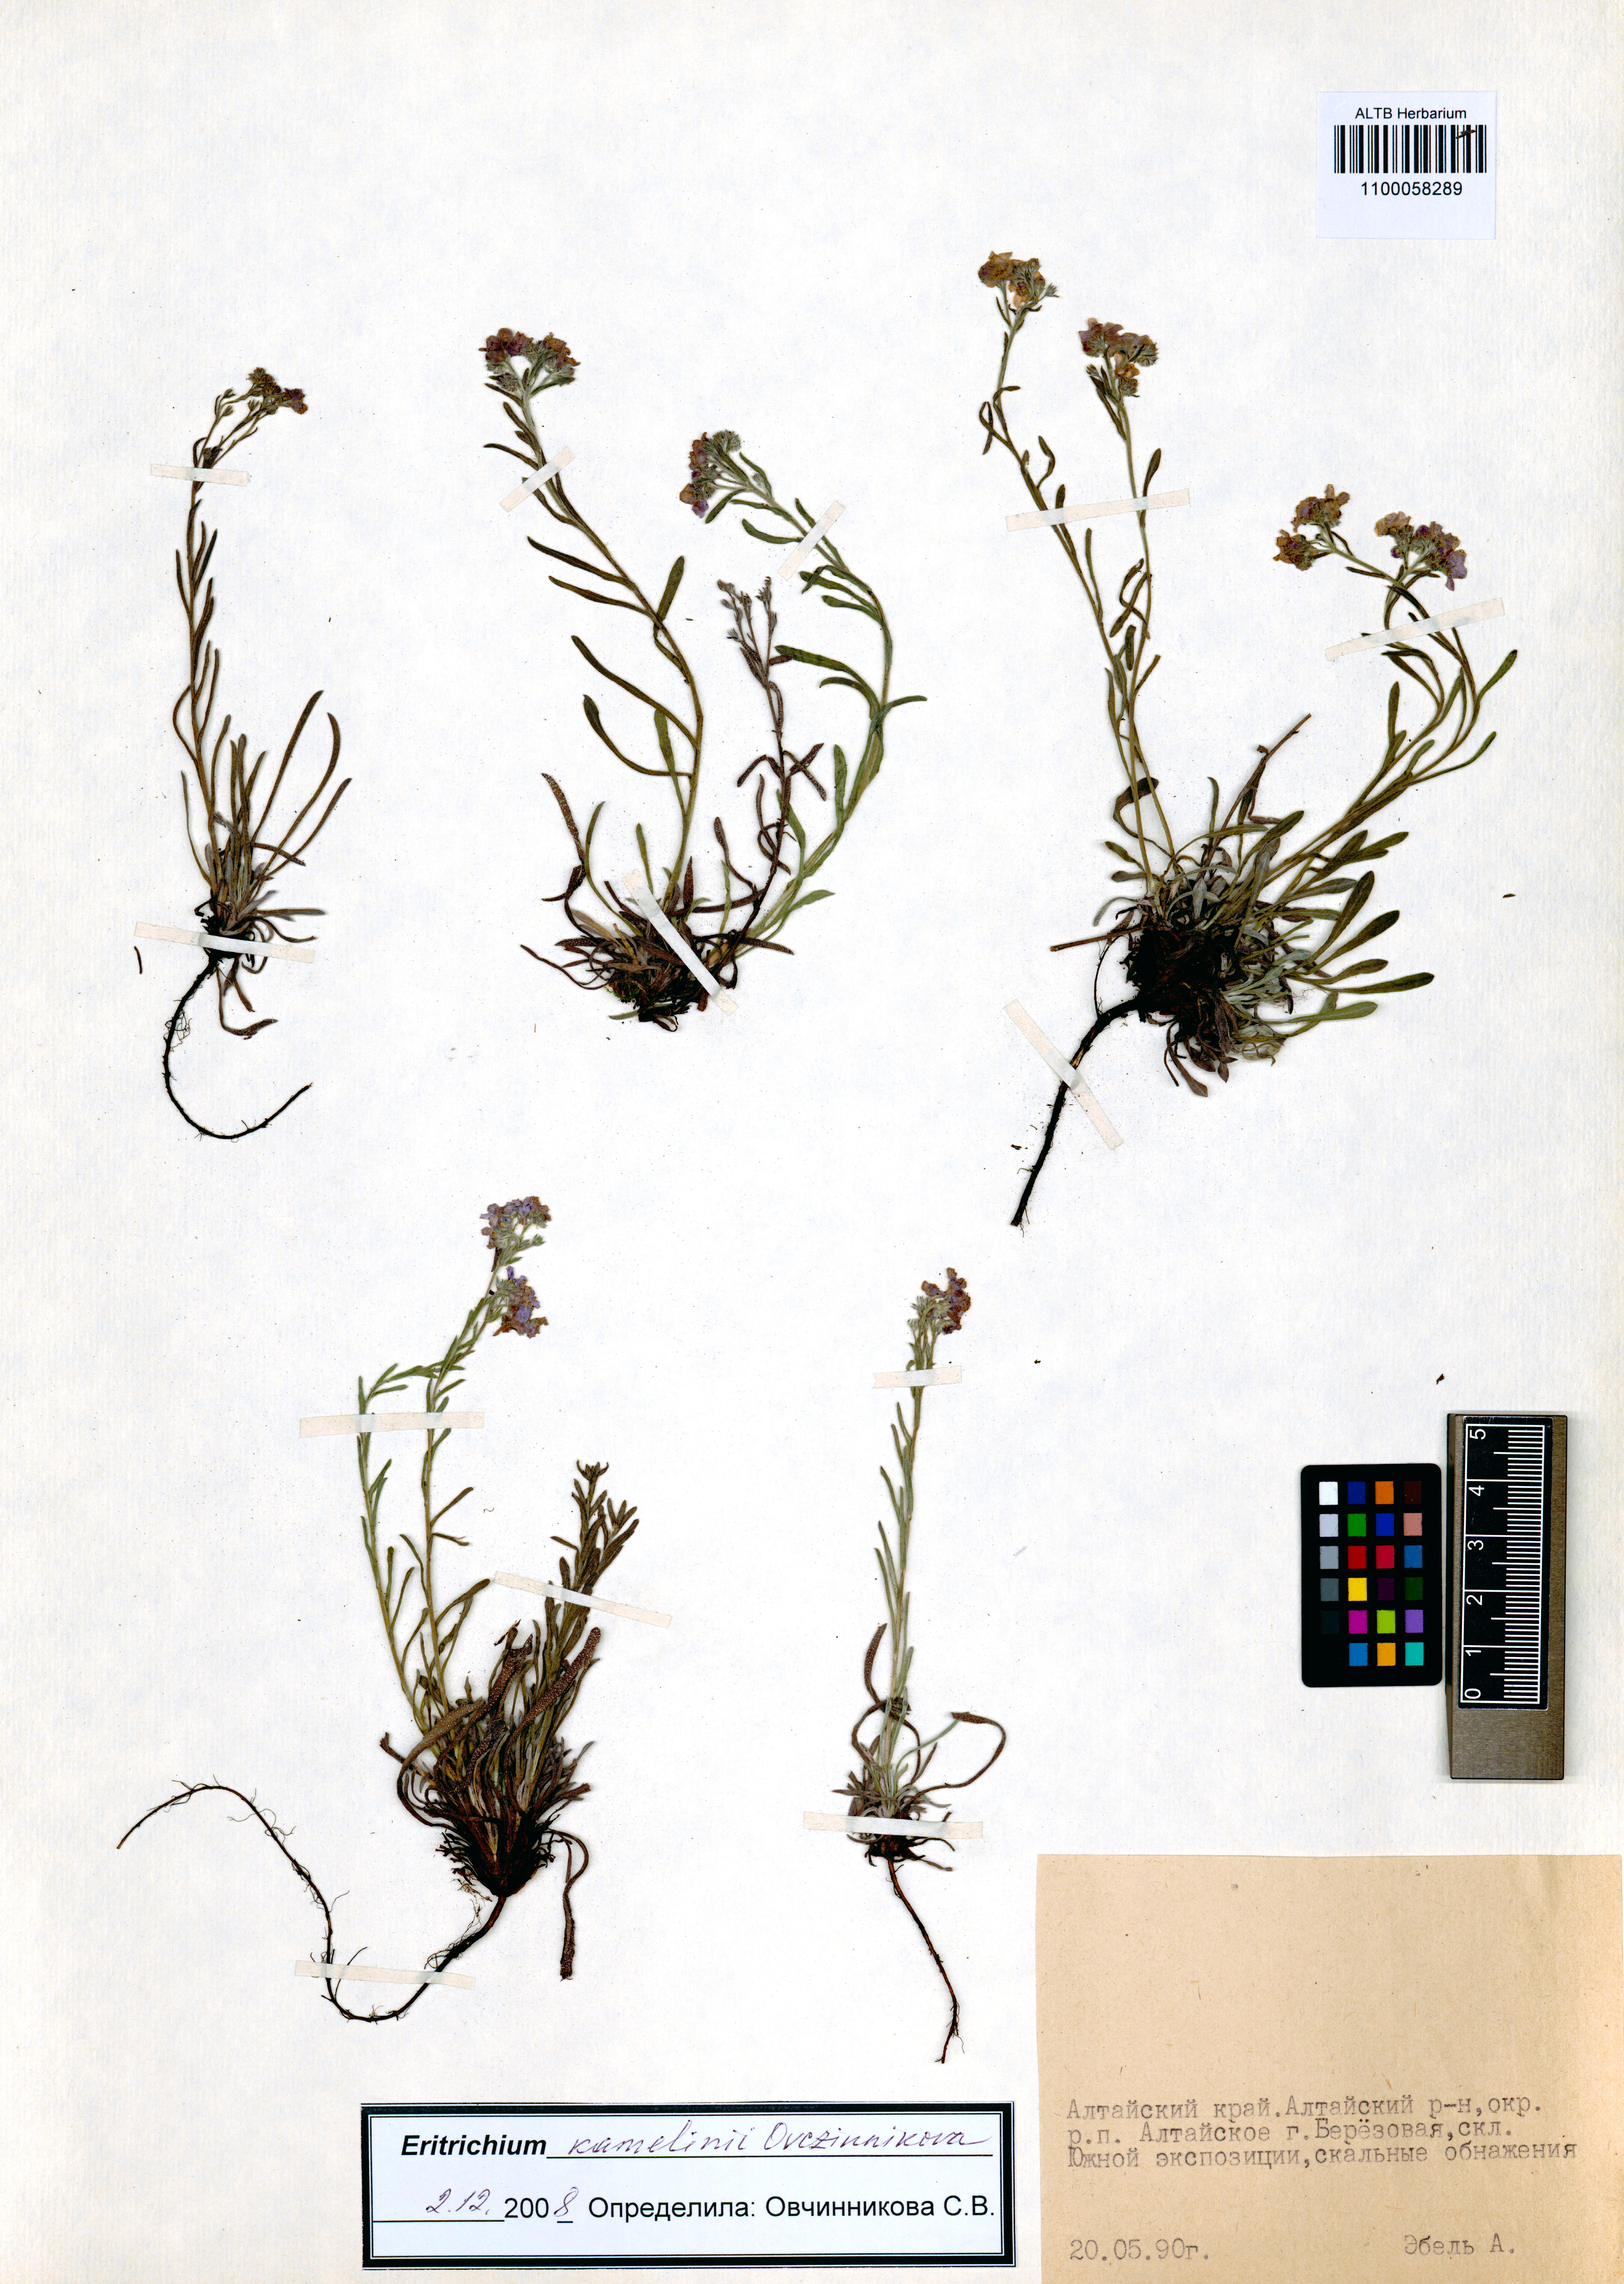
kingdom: Plantae
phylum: Tracheophyta
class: Magnoliopsida
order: Boraginales
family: Boraginaceae
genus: Eritrichium
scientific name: Eritrichium kamelinii
